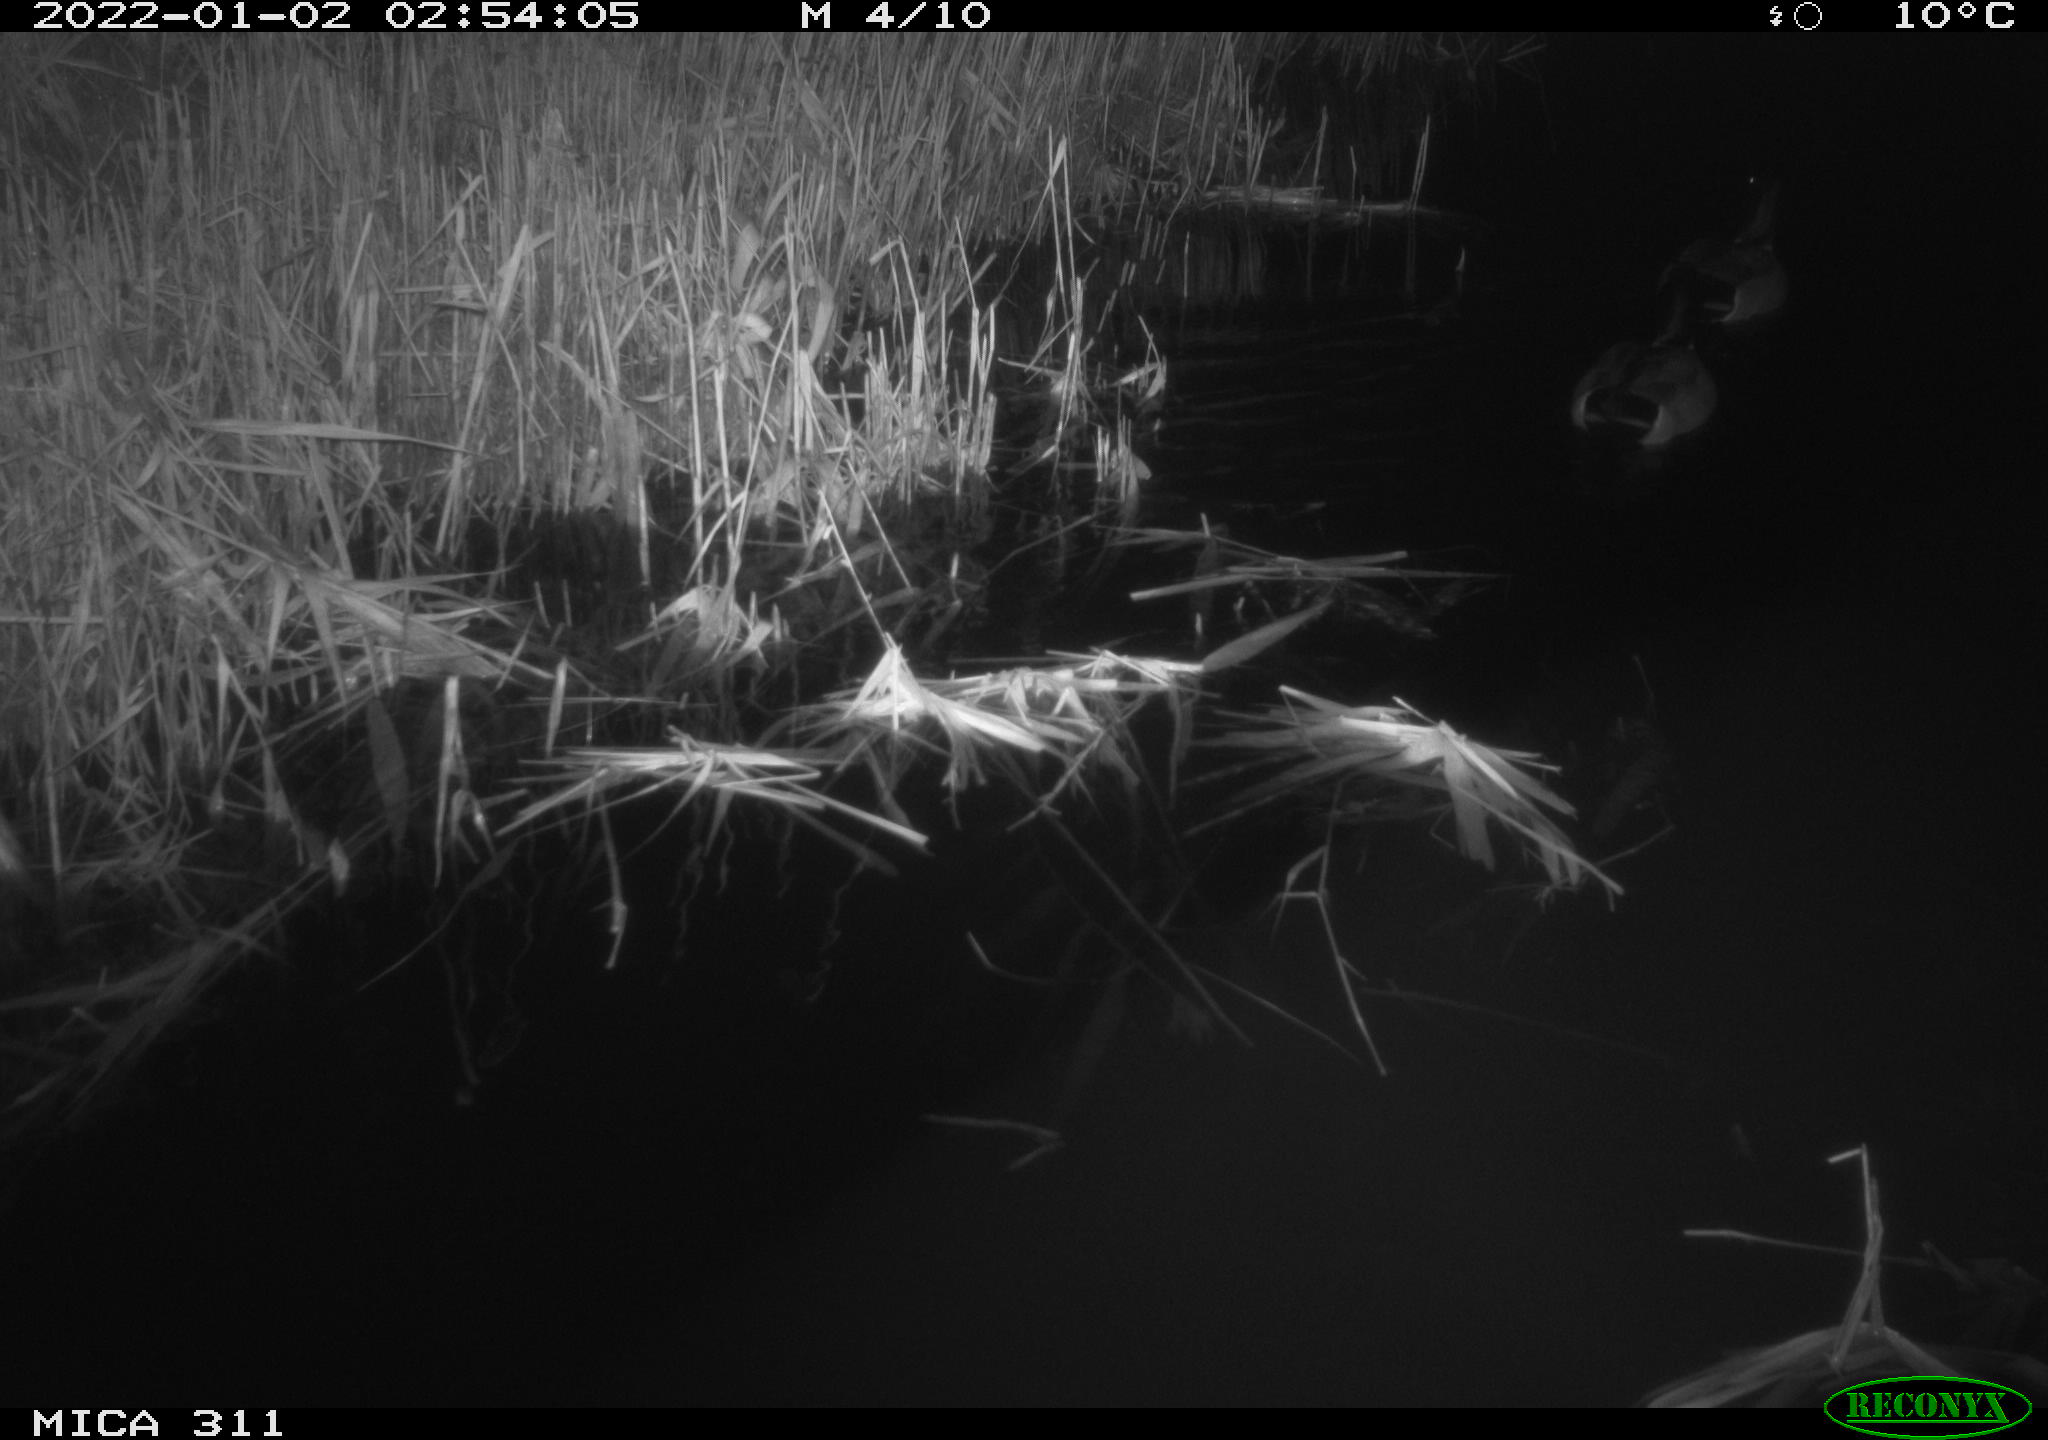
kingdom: Animalia
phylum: Chordata
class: Aves
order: Anseriformes
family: Anatidae
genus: Anas
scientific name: Anas platyrhynchos
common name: Mallard
